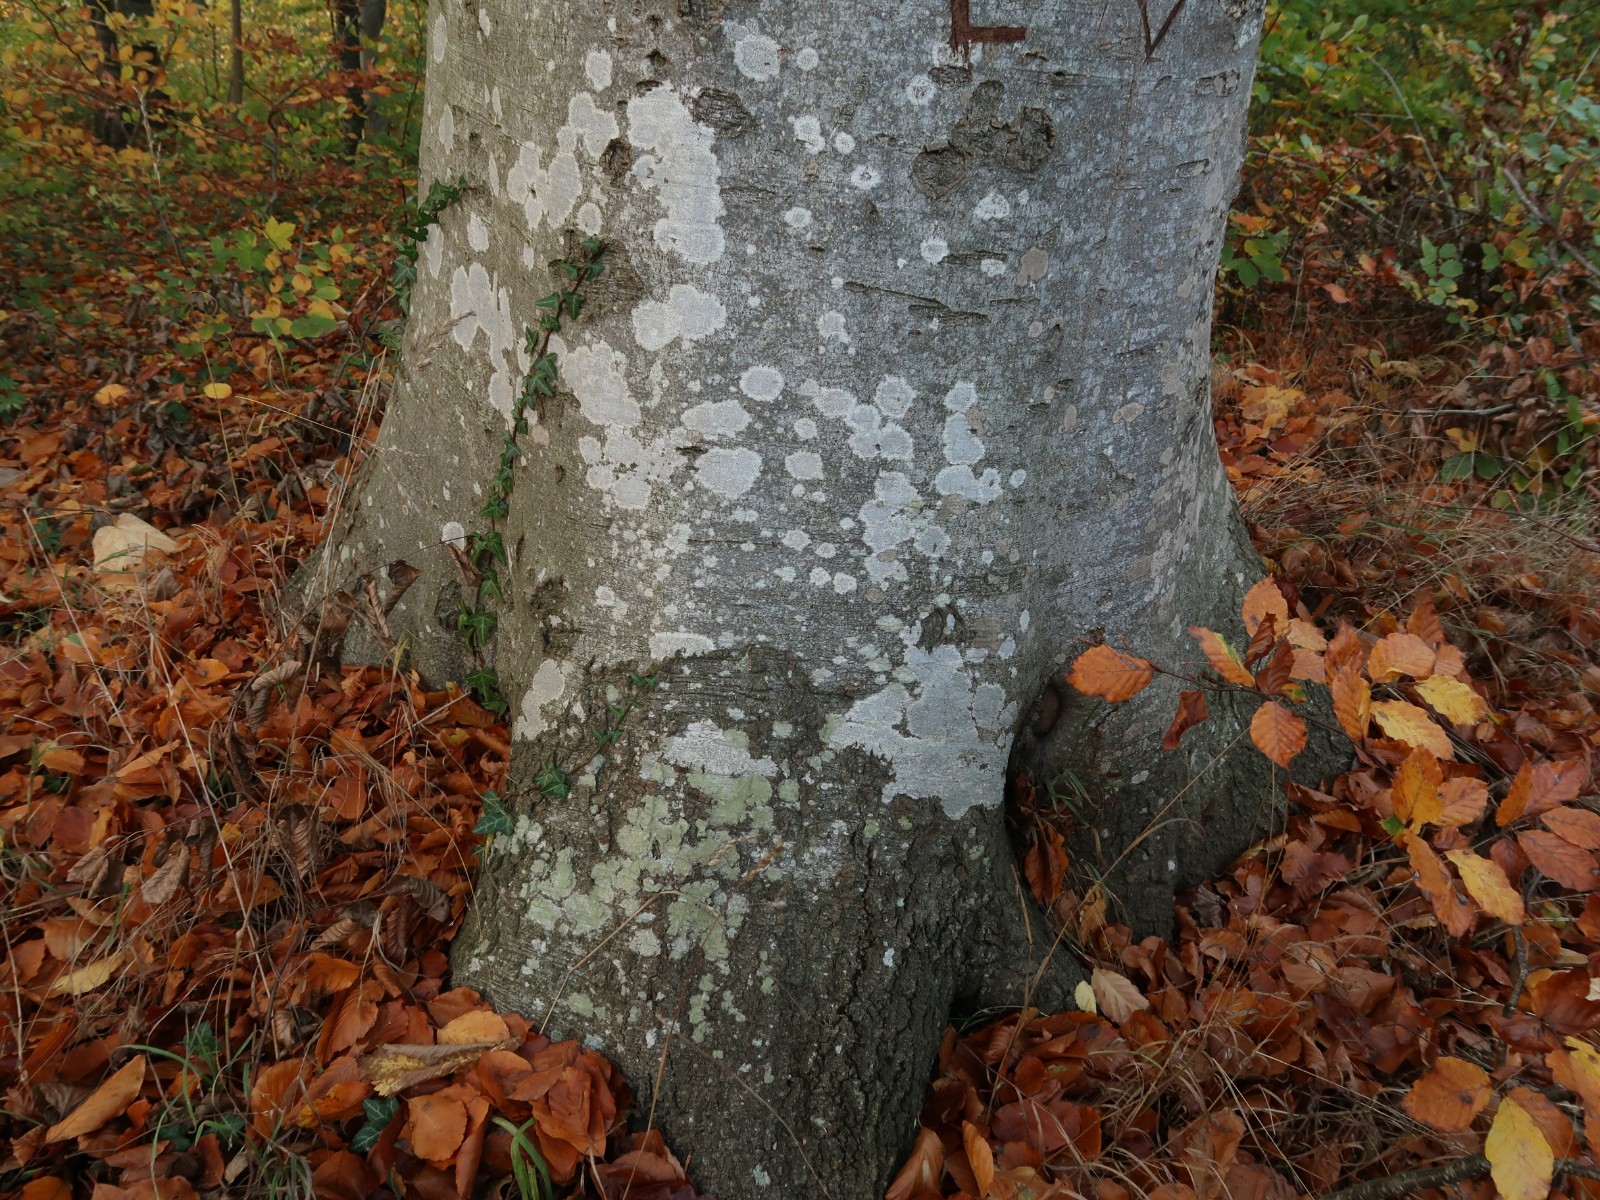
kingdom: Fungi
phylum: Ascomycota
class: Arthoniomycetes
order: Arthoniales
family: Roccellaceae
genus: Dendrographa
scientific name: Dendrographa decolorans
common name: forskelligfarvet skurvelav
